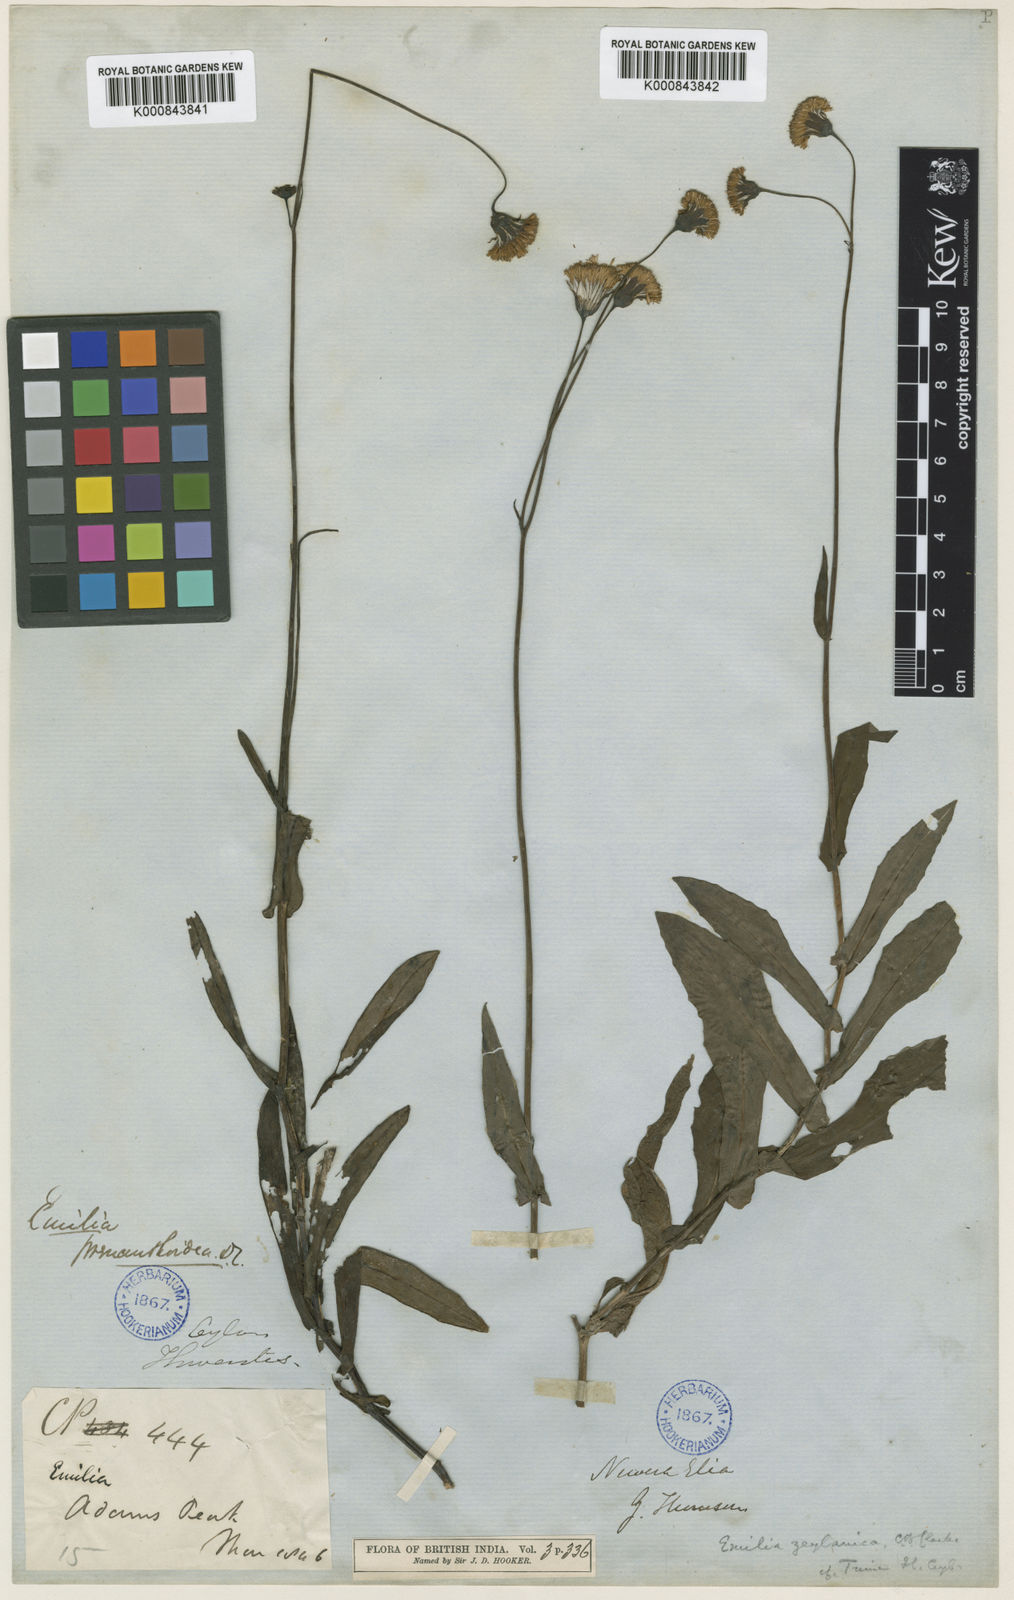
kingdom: Plantae
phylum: Tracheophyta
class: Magnoliopsida
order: Asterales
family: Asteraceae
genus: Emilia
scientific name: Emilia zeylanica
